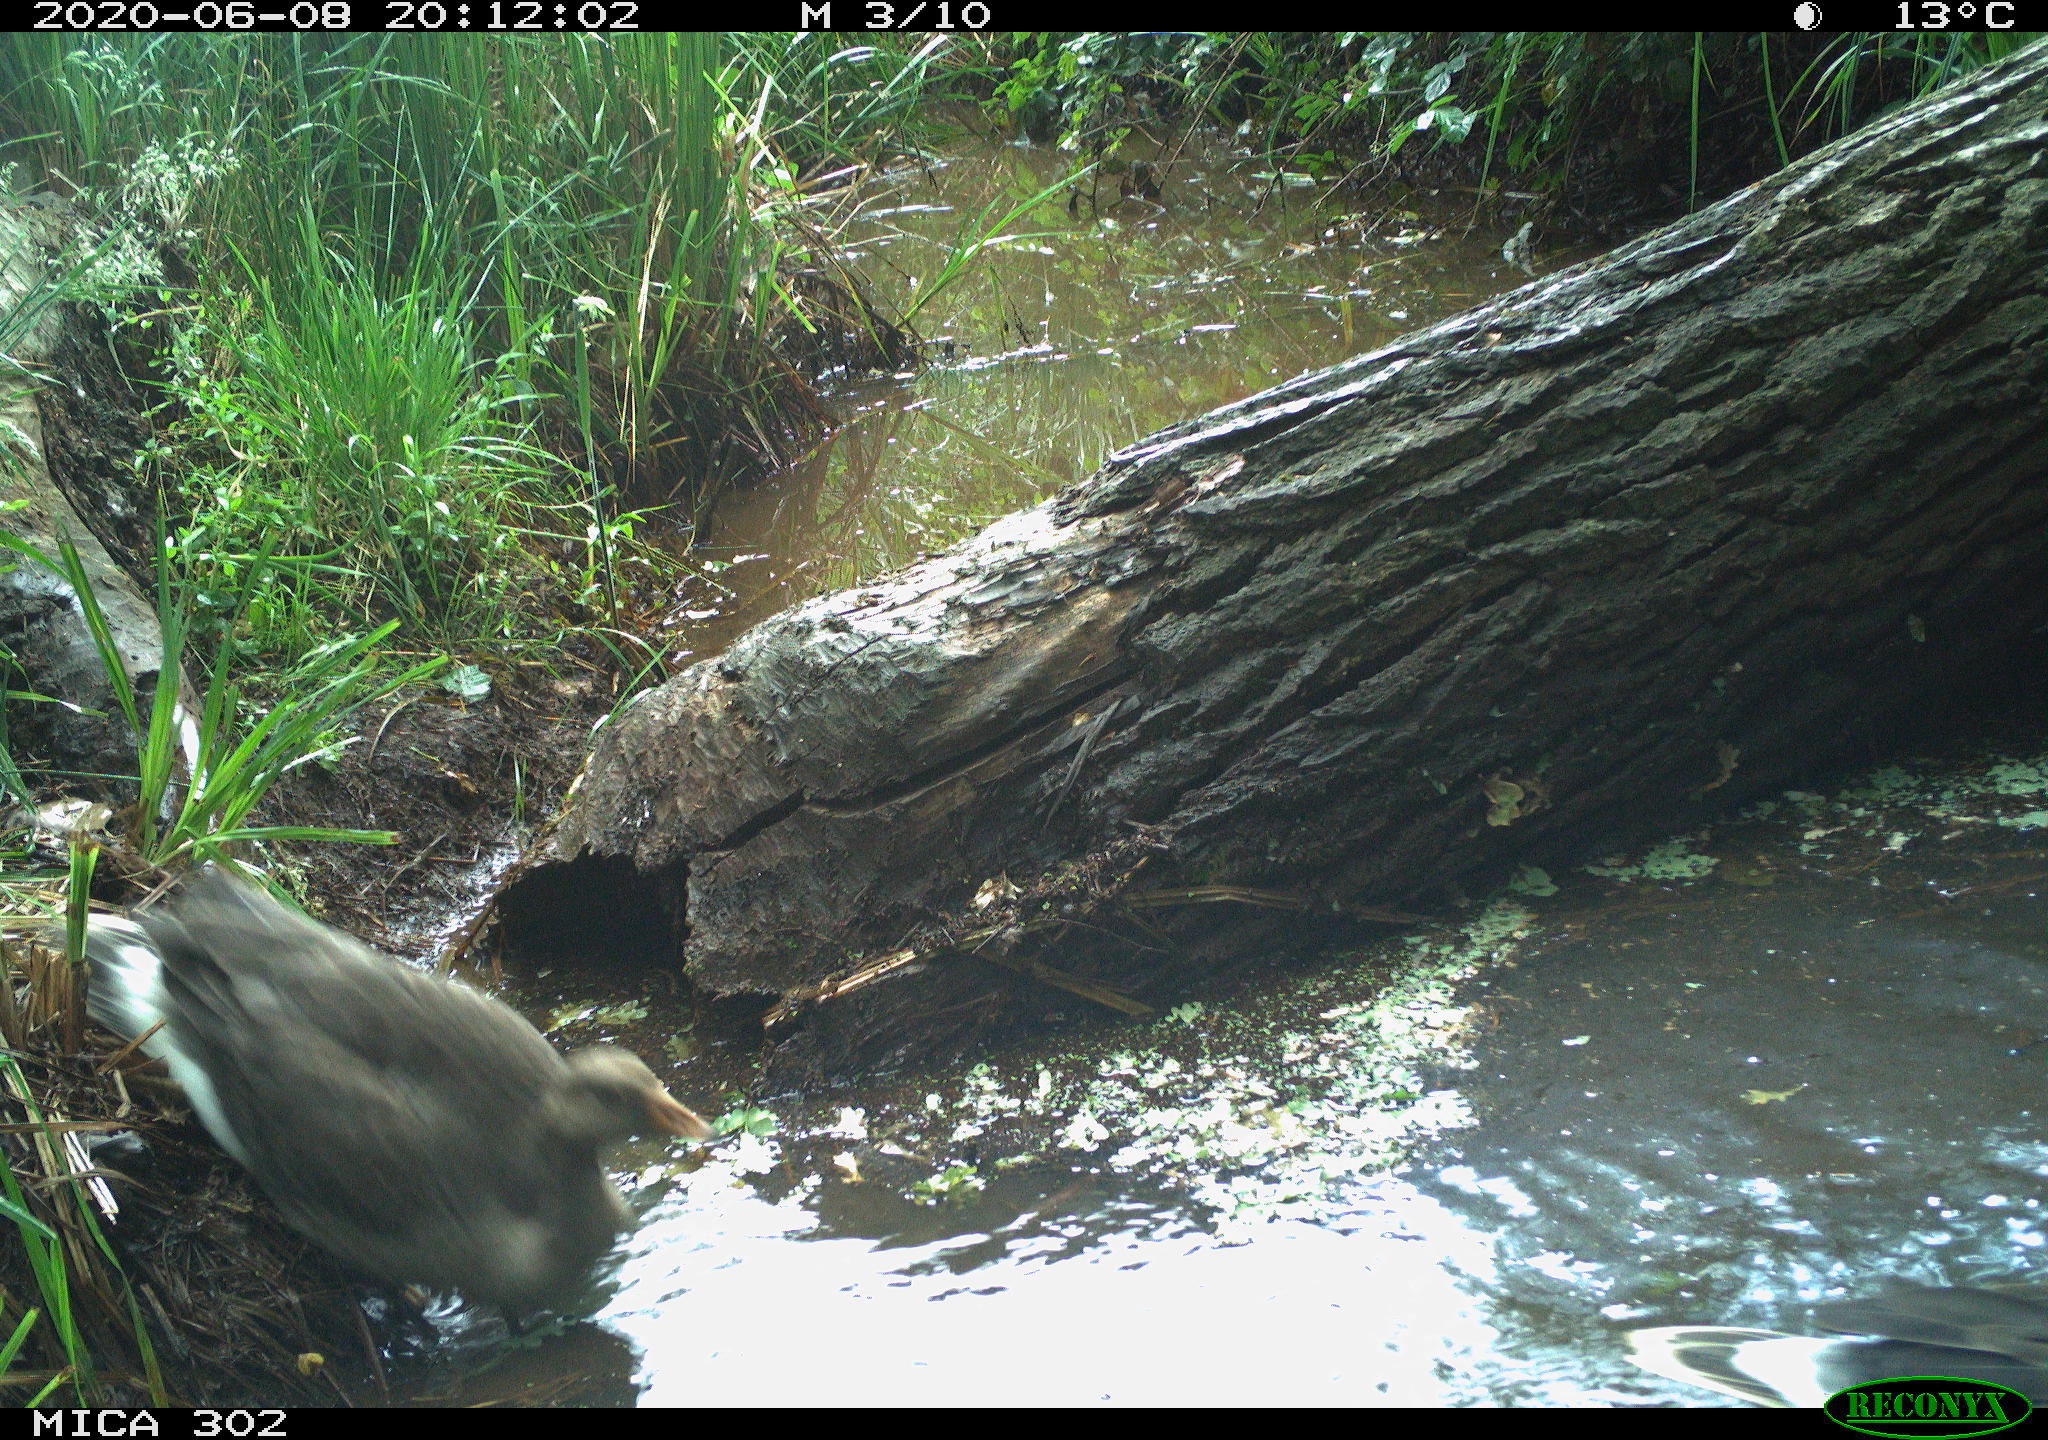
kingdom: Animalia
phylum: Chordata
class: Aves
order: Anseriformes
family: Anatidae
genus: Anser
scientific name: Anser anser
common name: Greylag goose
